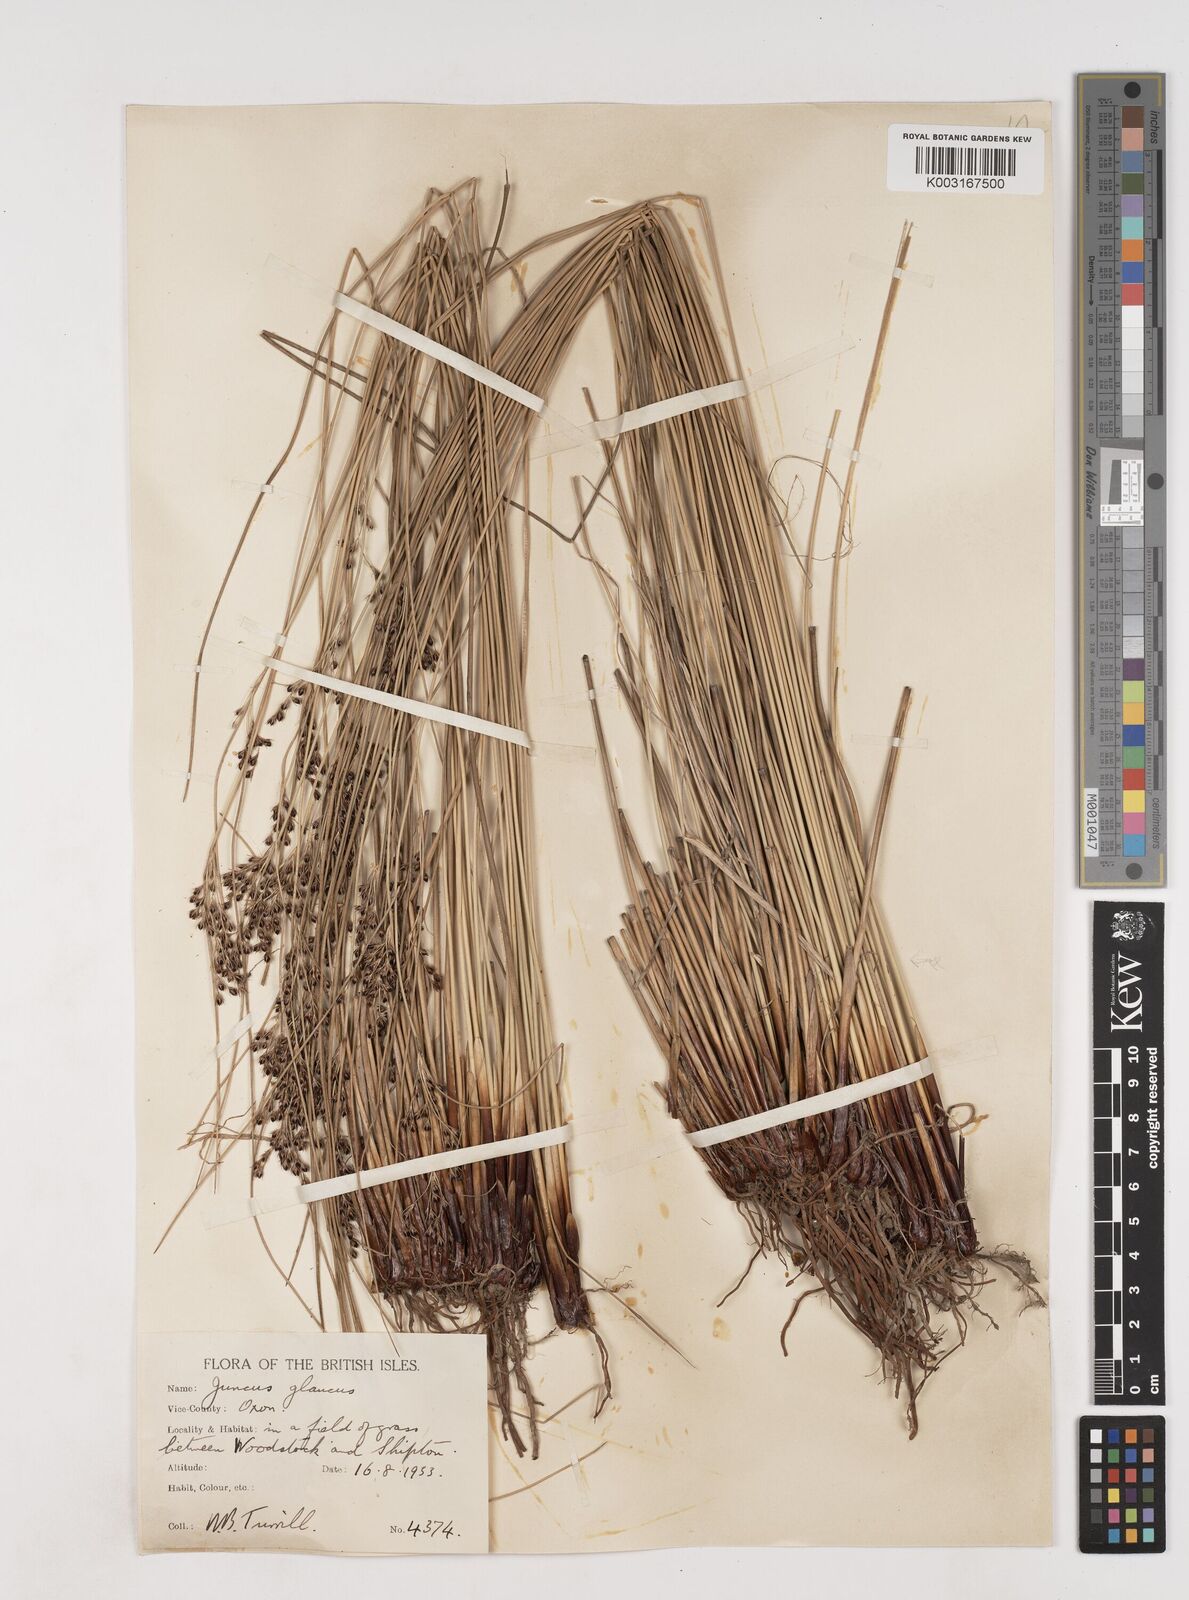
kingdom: Plantae
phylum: Tracheophyta
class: Liliopsida
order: Poales
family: Juncaceae
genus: Juncus
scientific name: Juncus inflexus
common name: Hard rush
